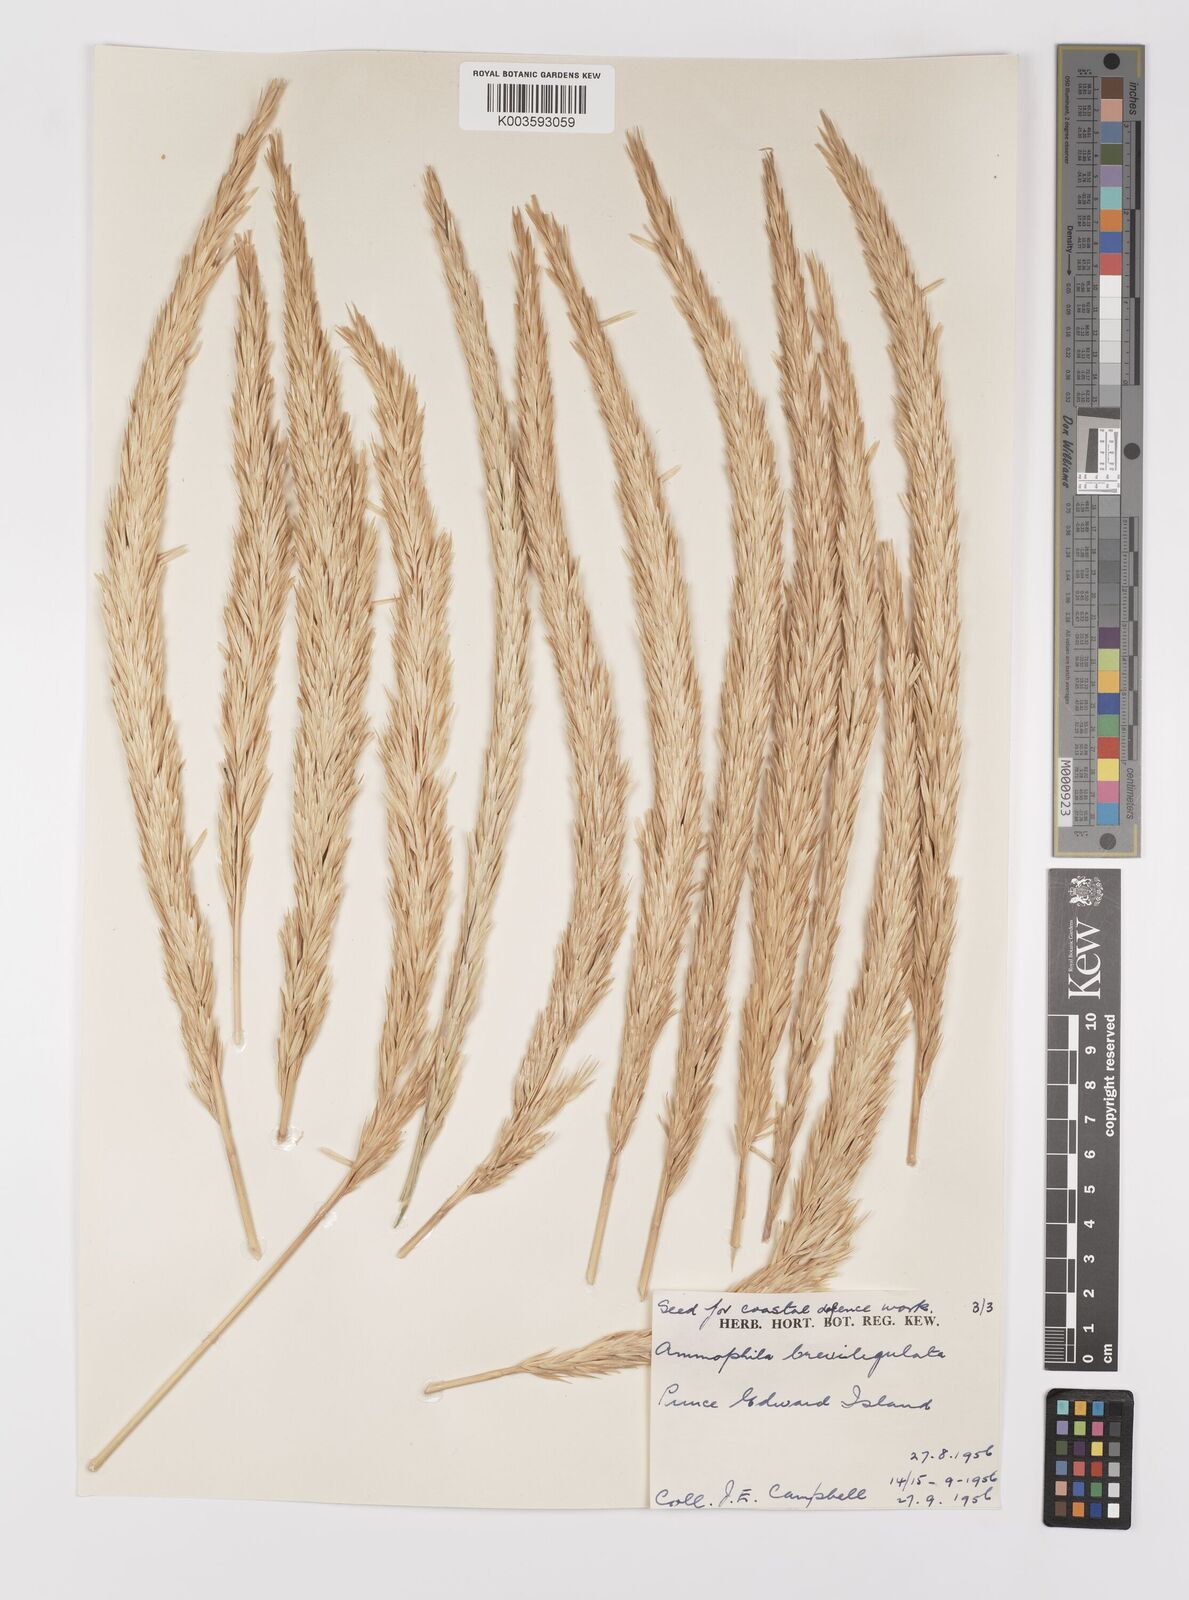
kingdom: Plantae
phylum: Tracheophyta
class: Liliopsida
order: Poales
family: Poaceae
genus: Calamagrostis
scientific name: Calamagrostis breviligulata
